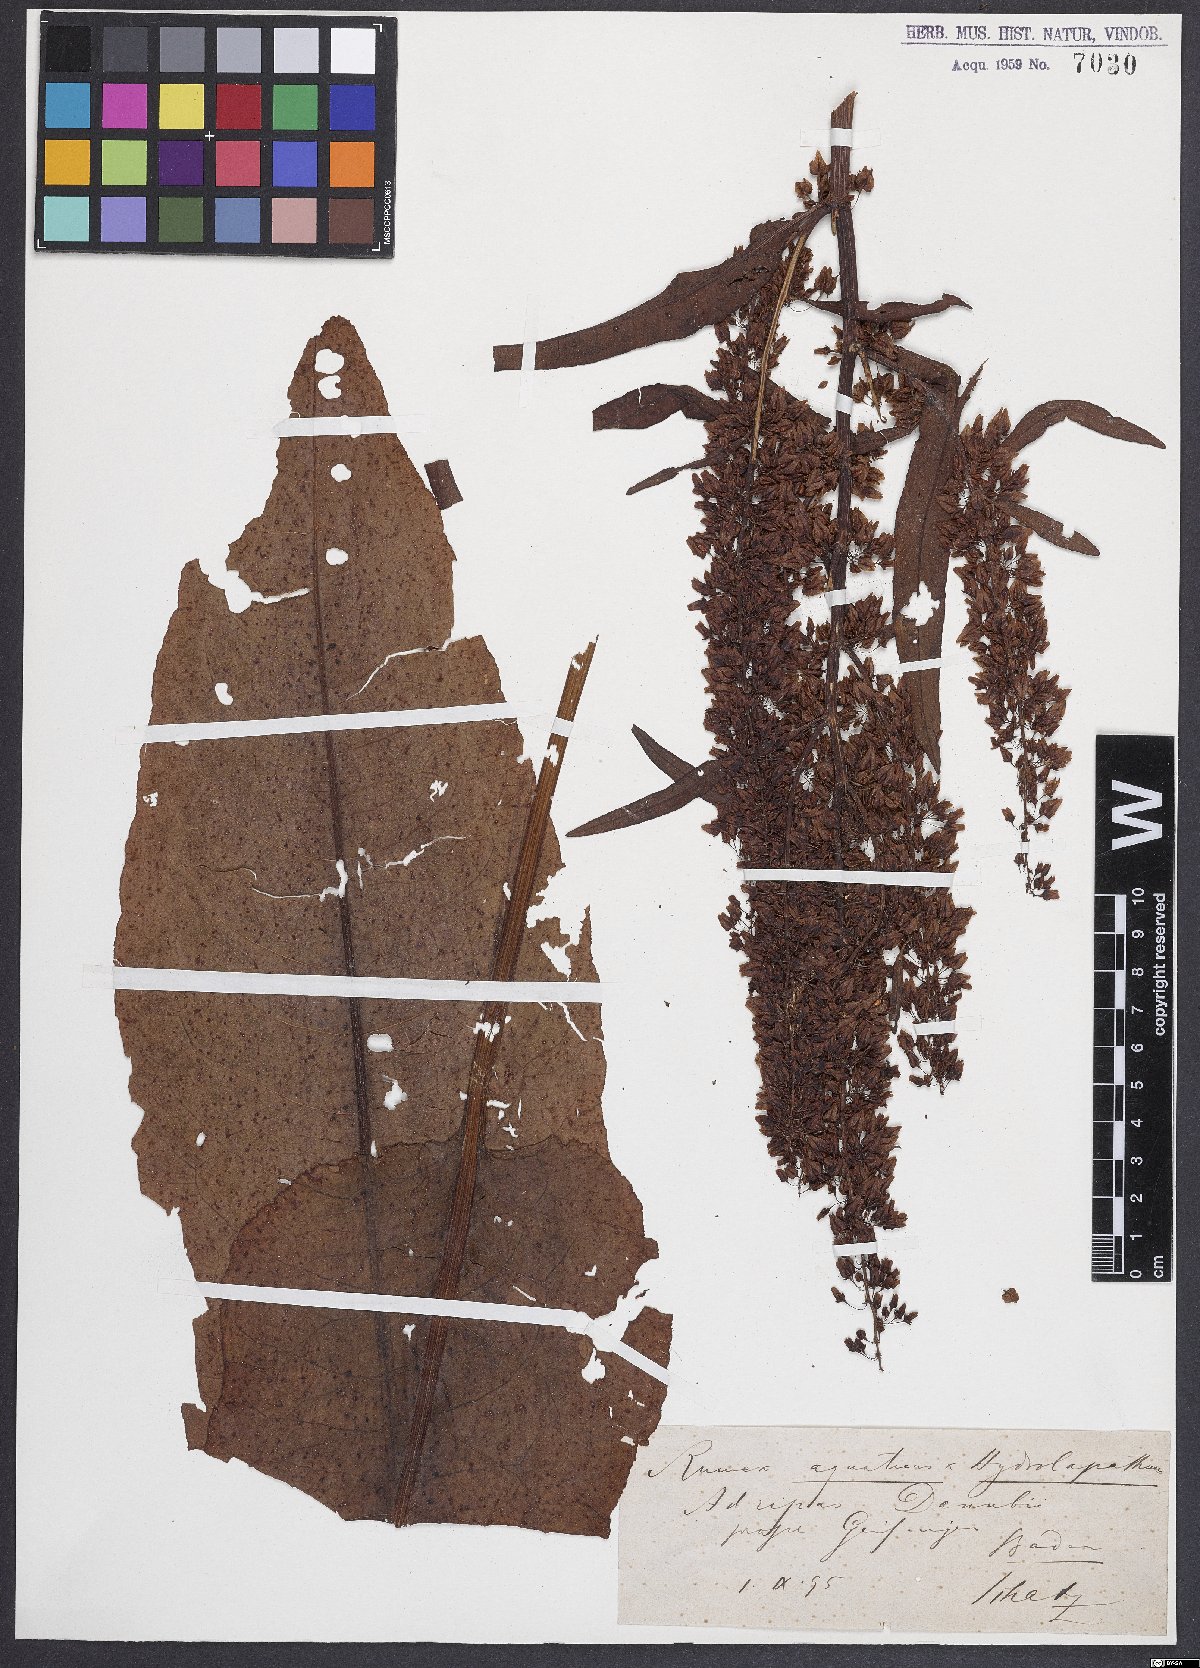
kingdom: Plantae
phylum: Tracheophyta
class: Magnoliopsida
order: Caryophyllales
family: Polygonaceae
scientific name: Polygonaceae
